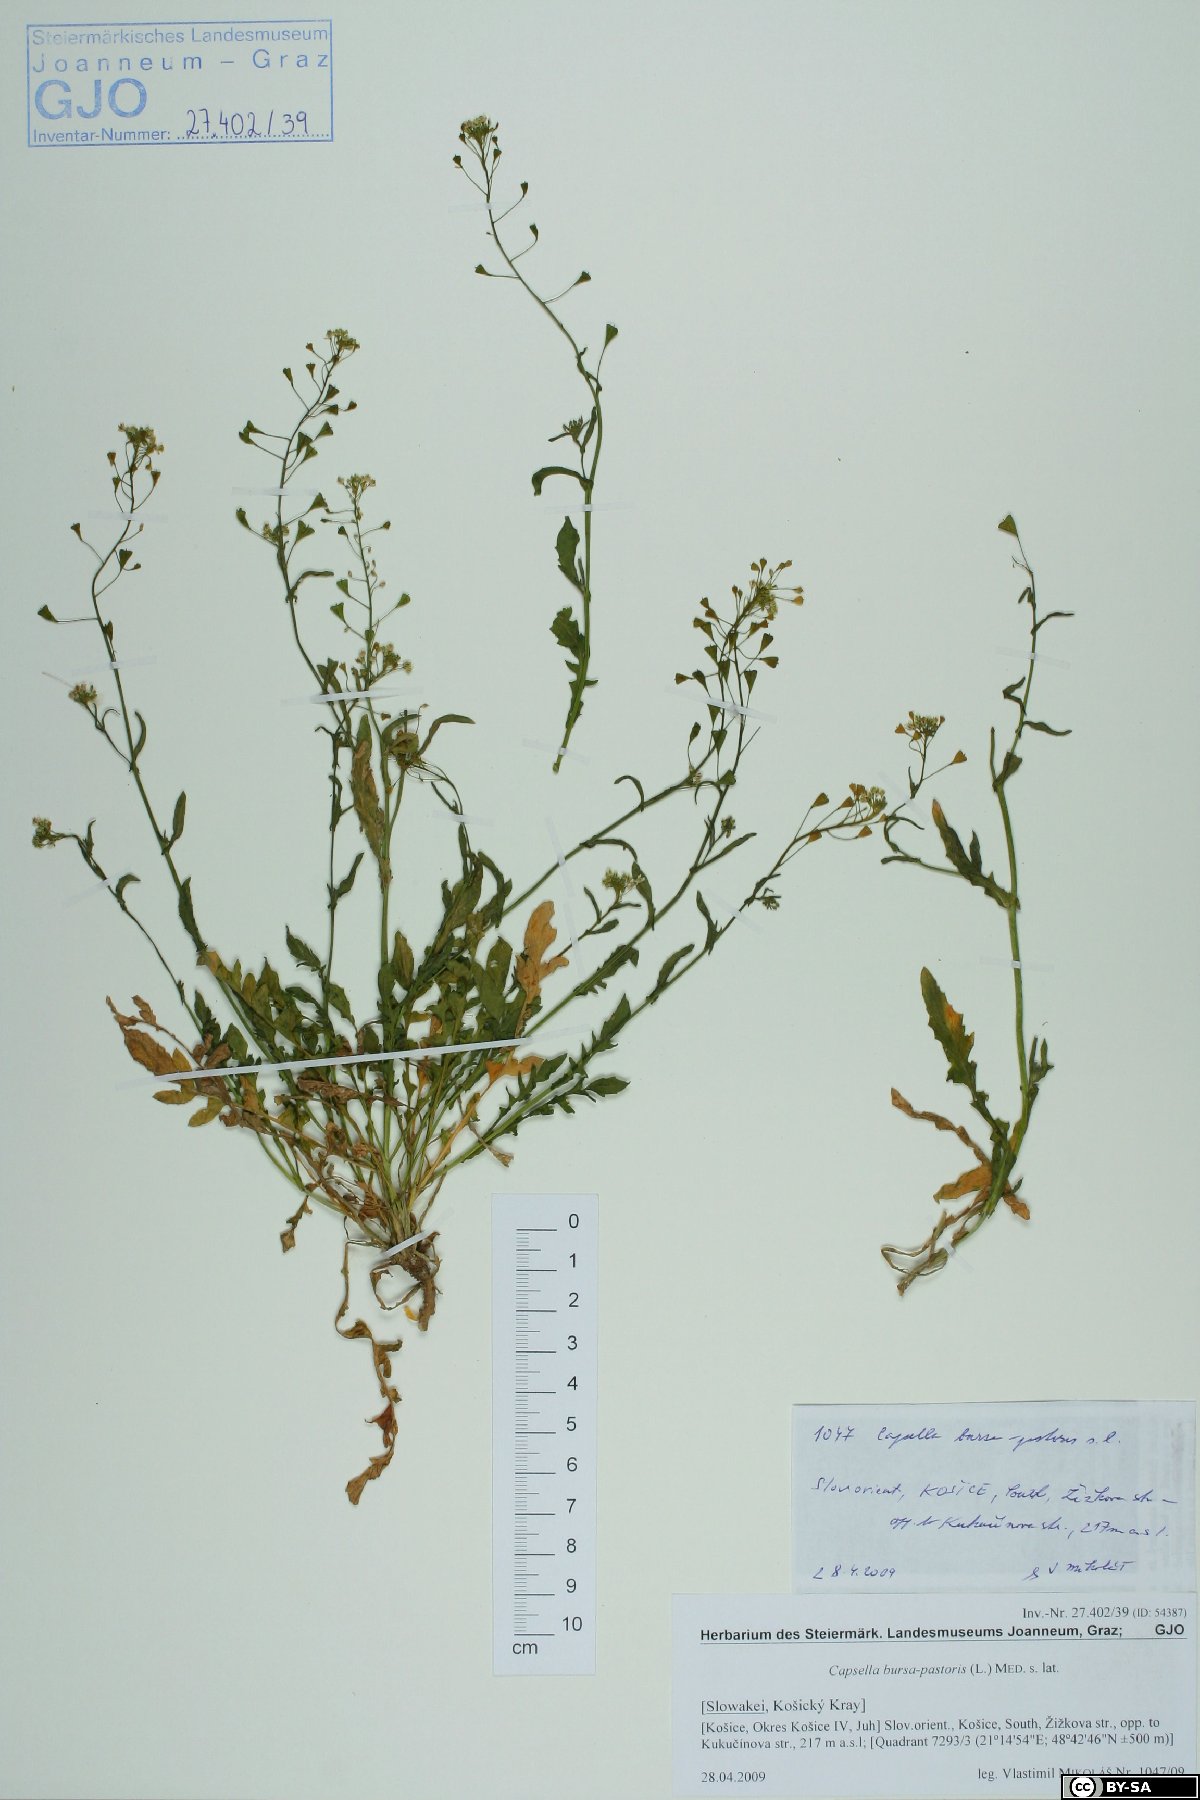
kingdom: Plantae
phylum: Tracheophyta
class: Magnoliopsida
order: Brassicales
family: Brassicaceae
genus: Capsella
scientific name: Capsella bursa-pastoris
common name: Shepherd's purse
